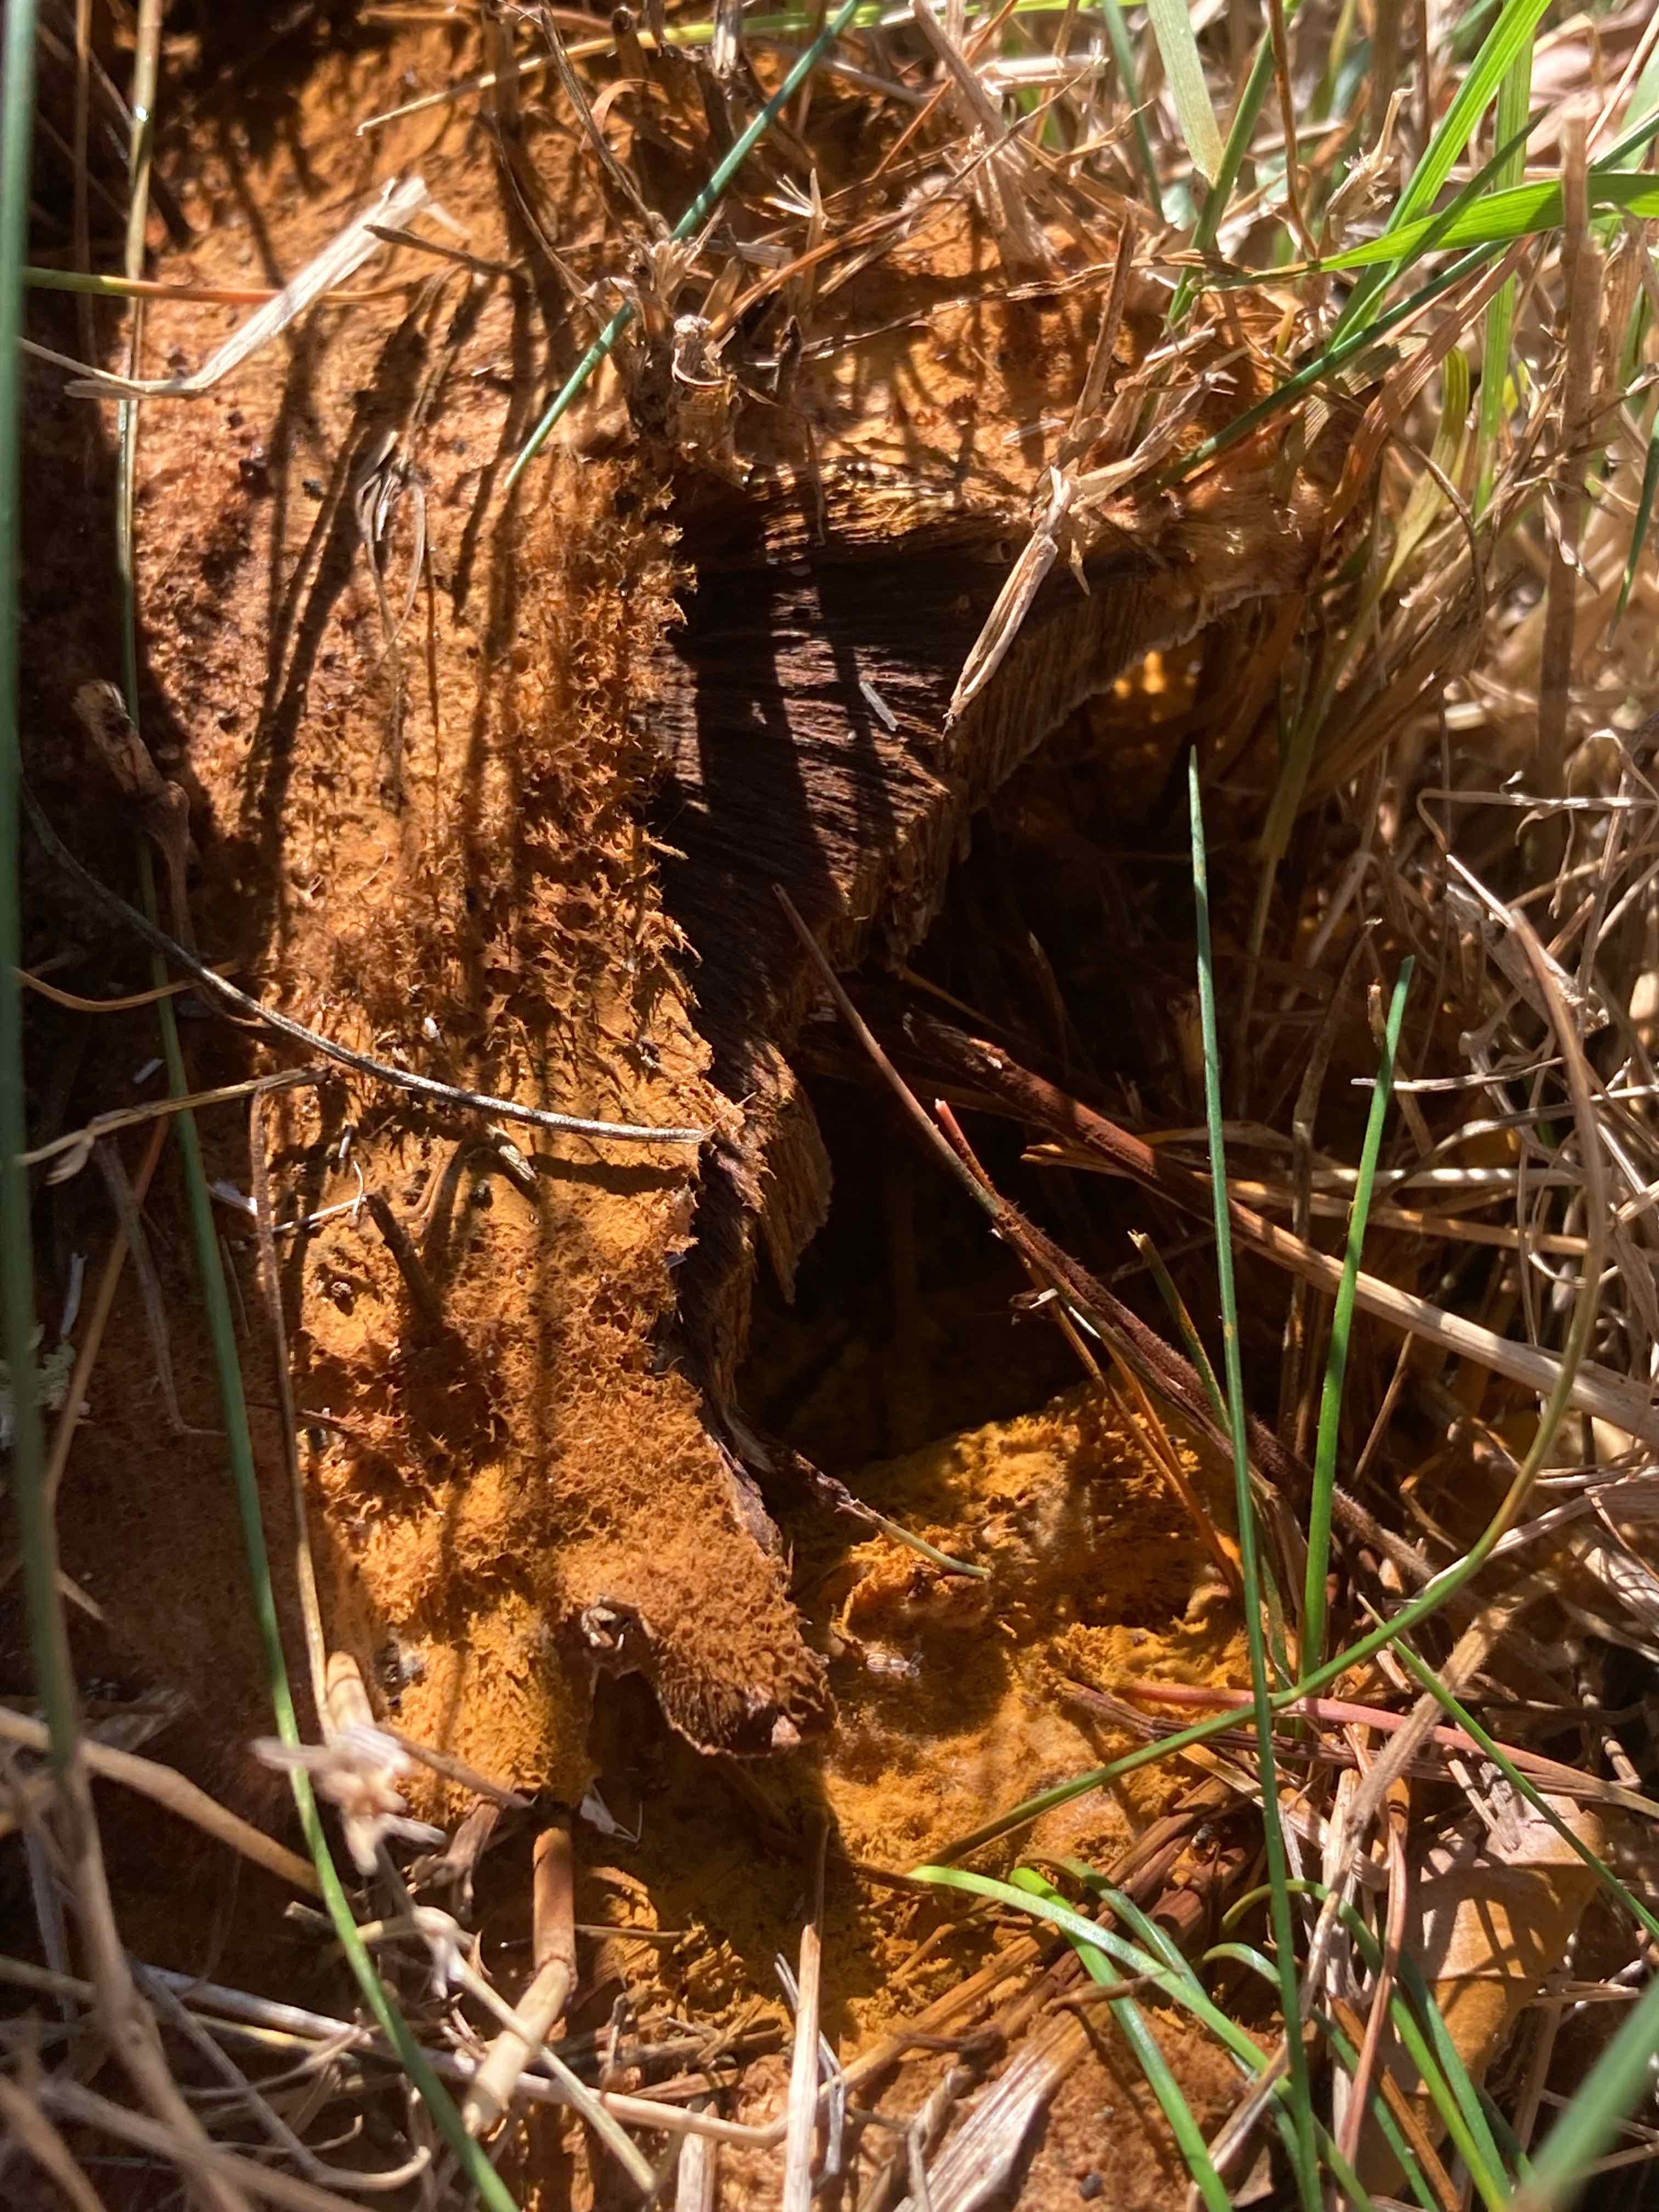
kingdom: Fungi
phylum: Basidiomycota
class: Agaricomycetes
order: Polyporales
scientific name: Polyporales
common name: poresvampordenen
